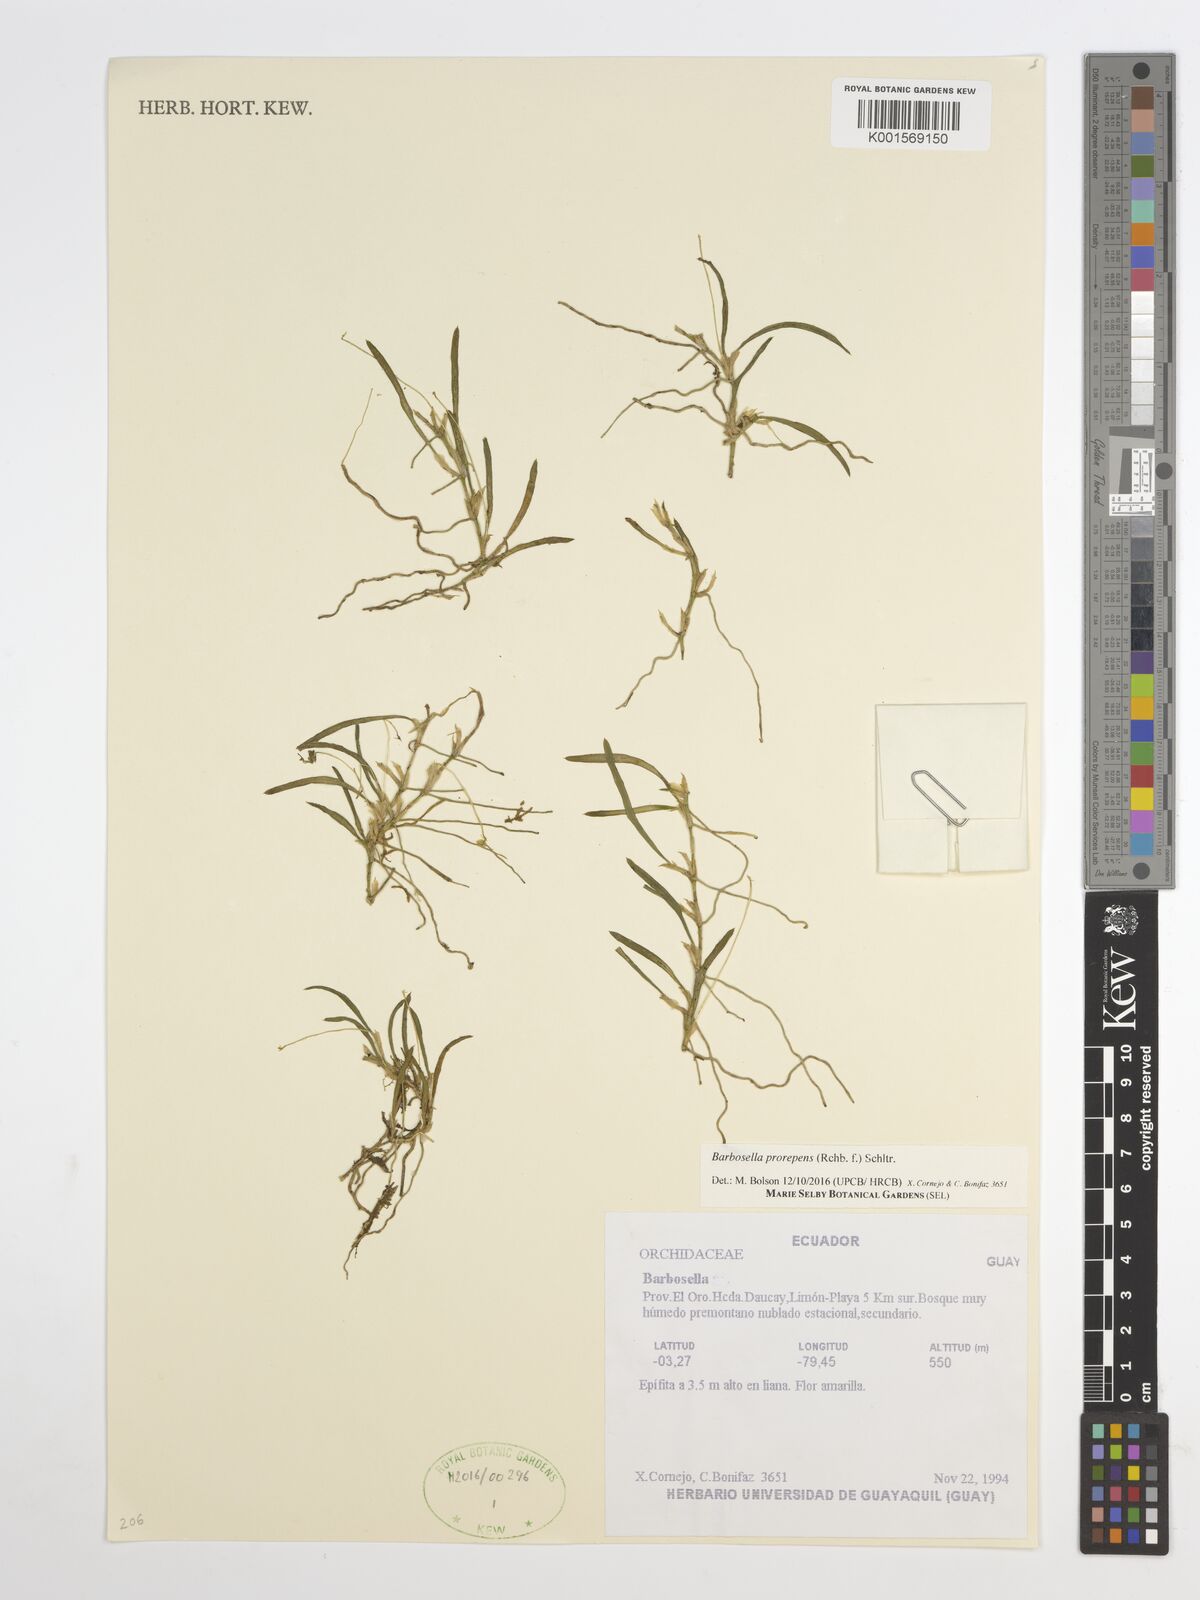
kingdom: Plantae
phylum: Tracheophyta
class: Liliopsida
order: Asparagales
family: Orchidaceae
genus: Barbosella
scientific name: Barbosella prorepens
